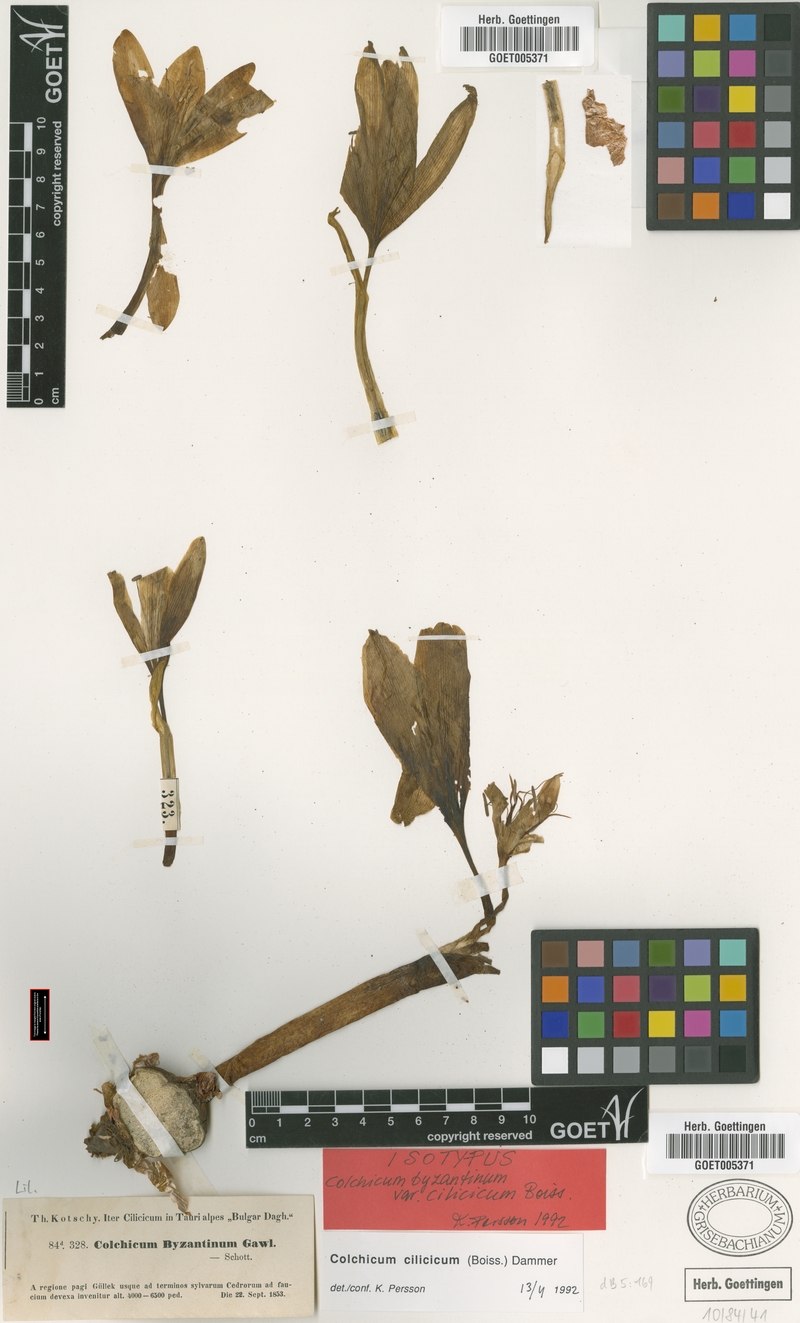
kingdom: Plantae
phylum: Tracheophyta
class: Liliopsida
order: Liliales
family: Colchicaceae
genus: Colchicum
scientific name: Colchicum cilicicum
